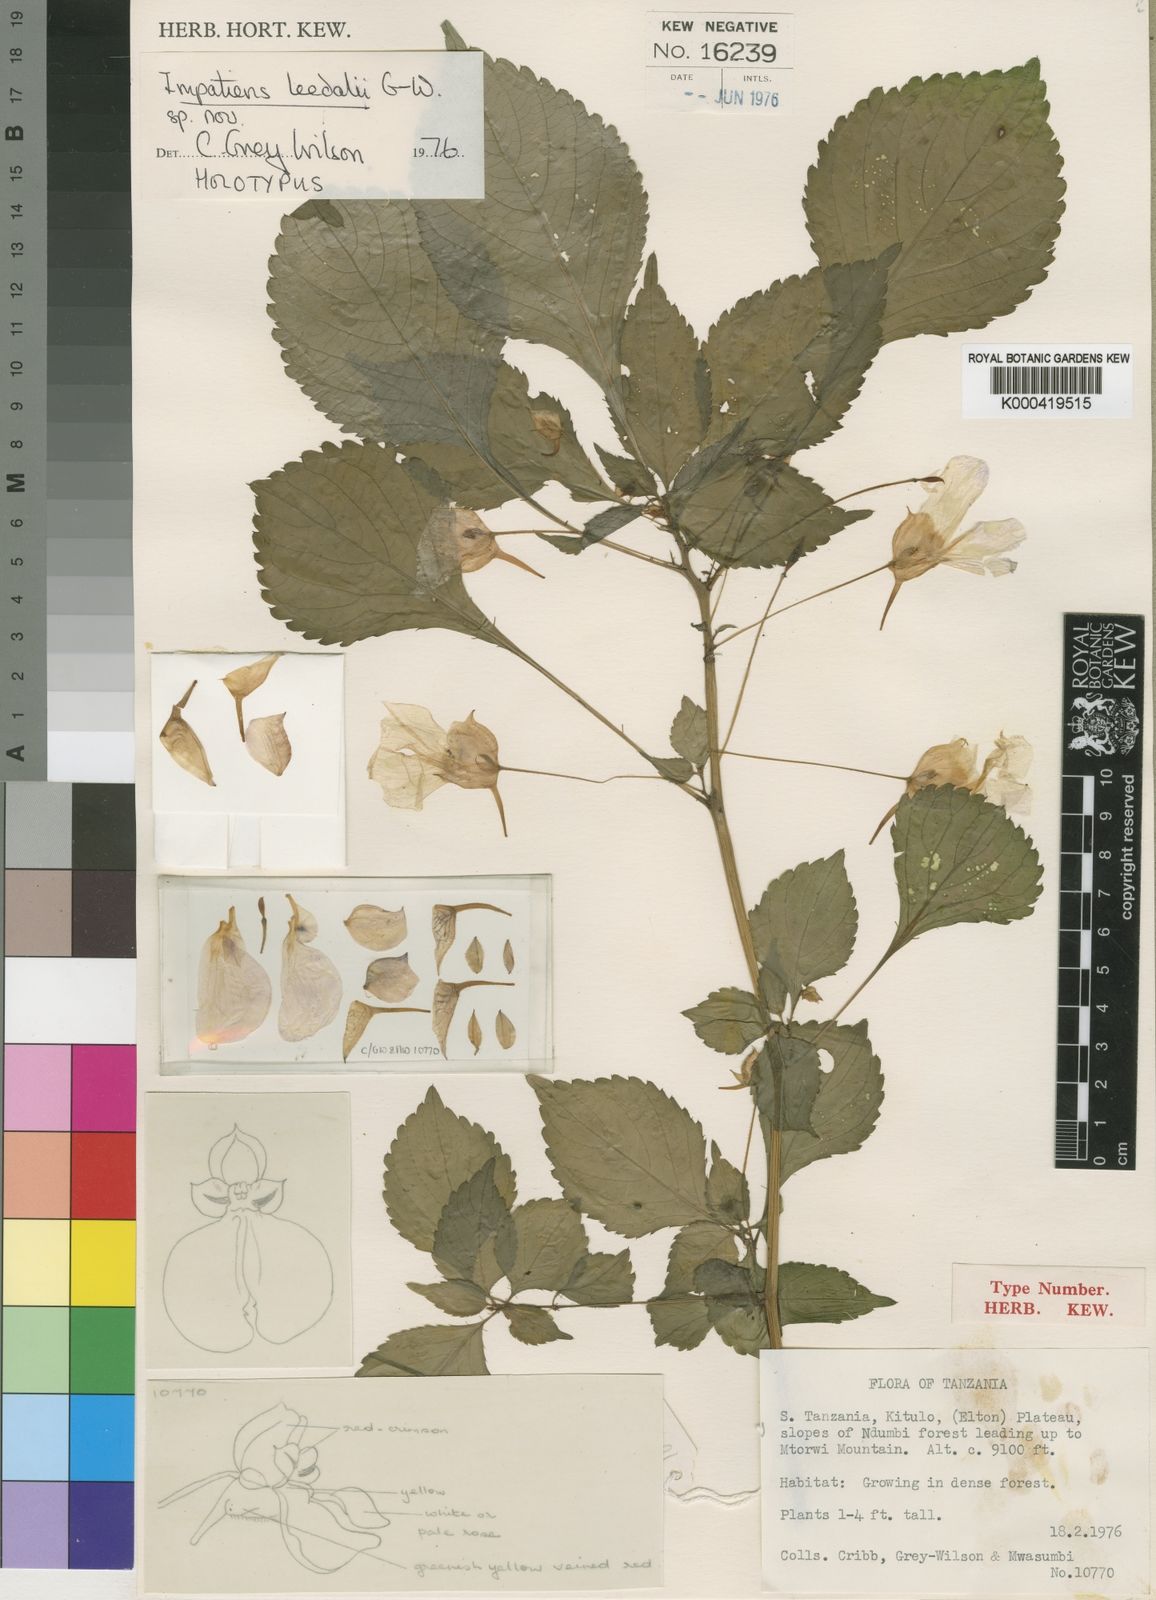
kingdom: Plantae
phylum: Tracheophyta
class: Magnoliopsida
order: Ericales
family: Balsaminaceae
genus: Impatiens
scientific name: Impatiens leedalii
